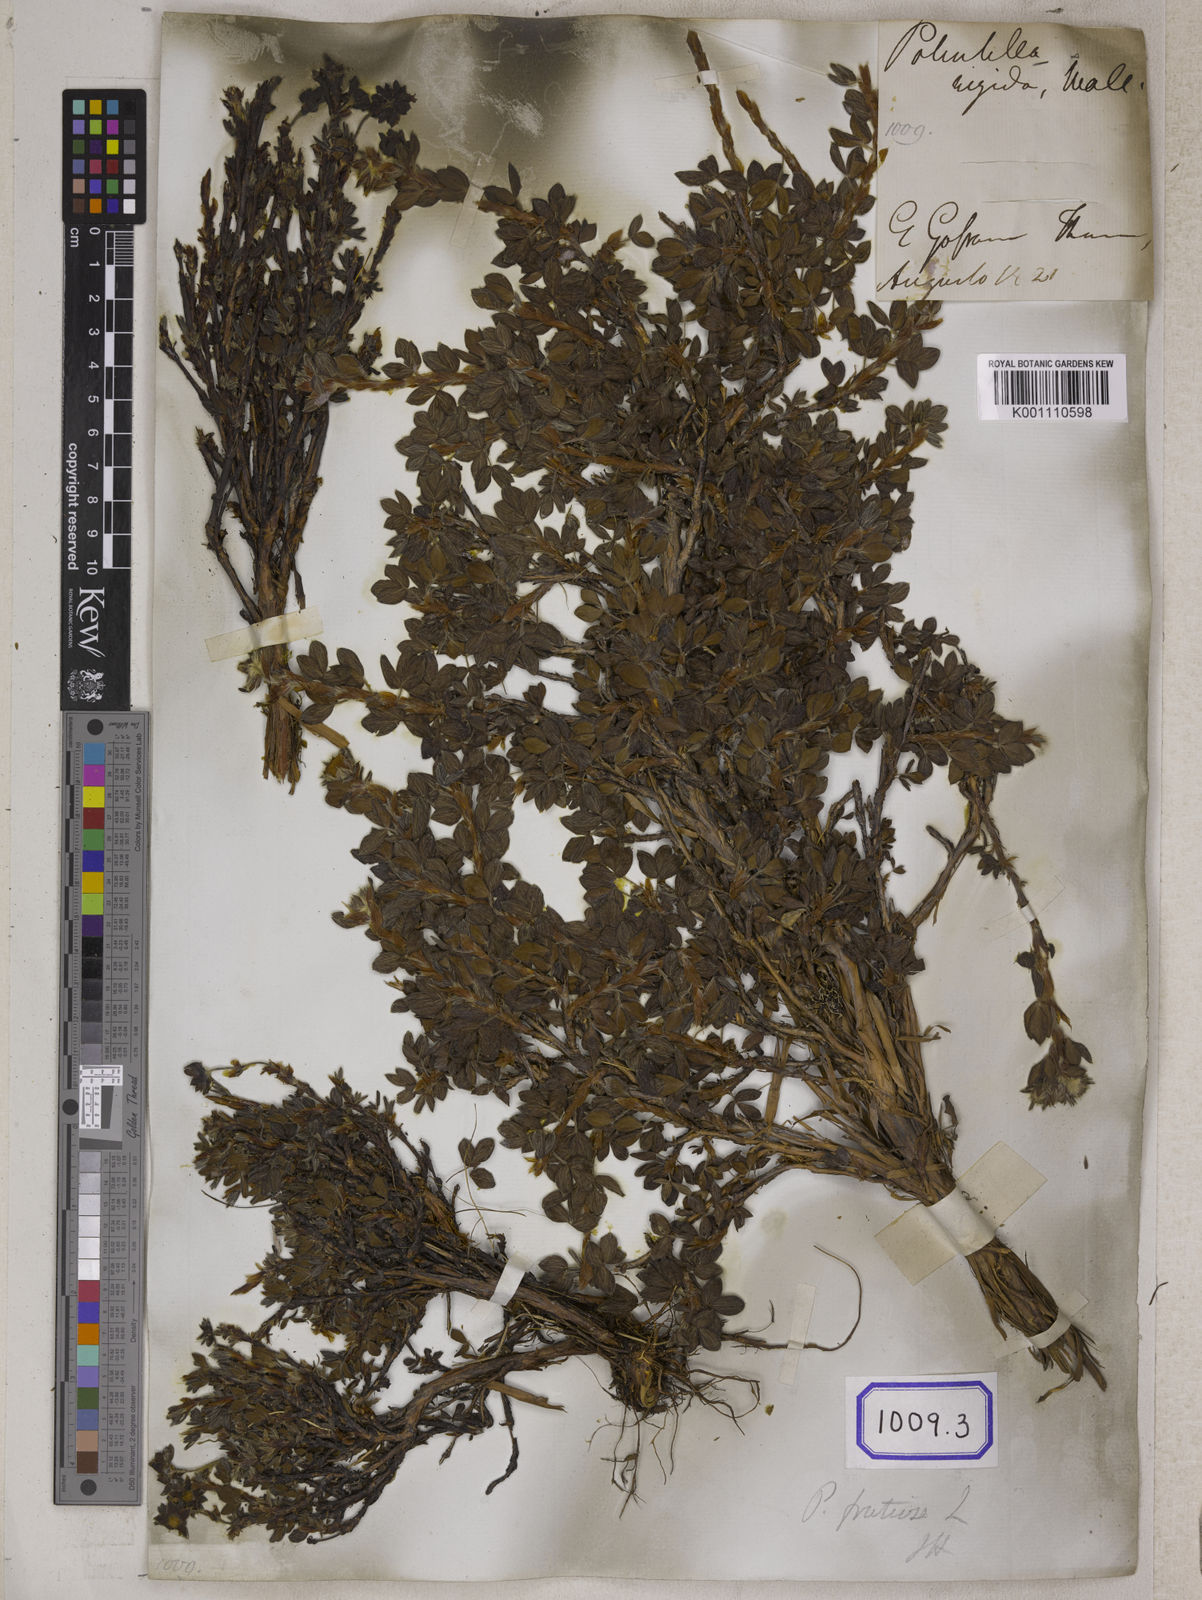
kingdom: Plantae
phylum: Tracheophyta
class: Magnoliopsida
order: Rosales
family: Rosaceae
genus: Potentilla
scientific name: Potentilla
